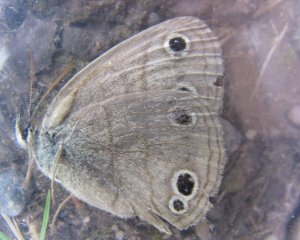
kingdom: Animalia
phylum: Arthropoda
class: Insecta
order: Lepidoptera
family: Nymphalidae
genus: Euptychia
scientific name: Euptychia cymela
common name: Little Wood Satyr
